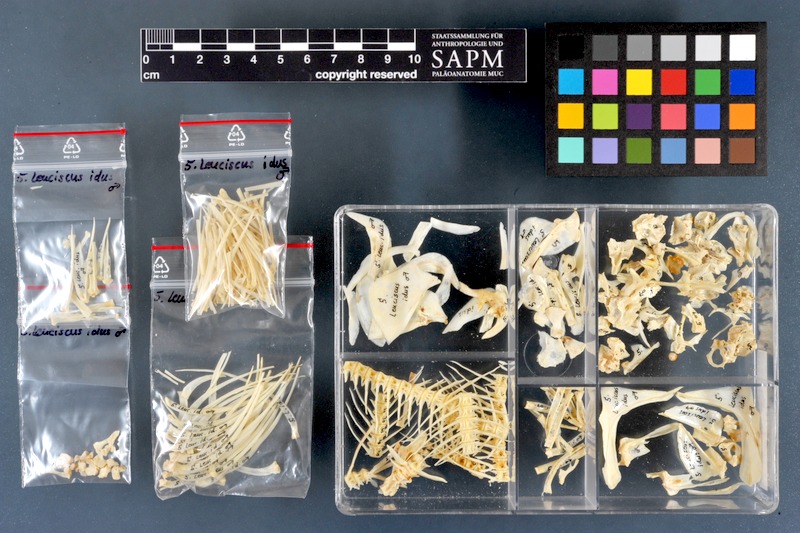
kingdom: Animalia
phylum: Chordata
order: Cypriniformes
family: Cyprinidae
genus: Leuciscus
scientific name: Leuciscus idus
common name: Ide
